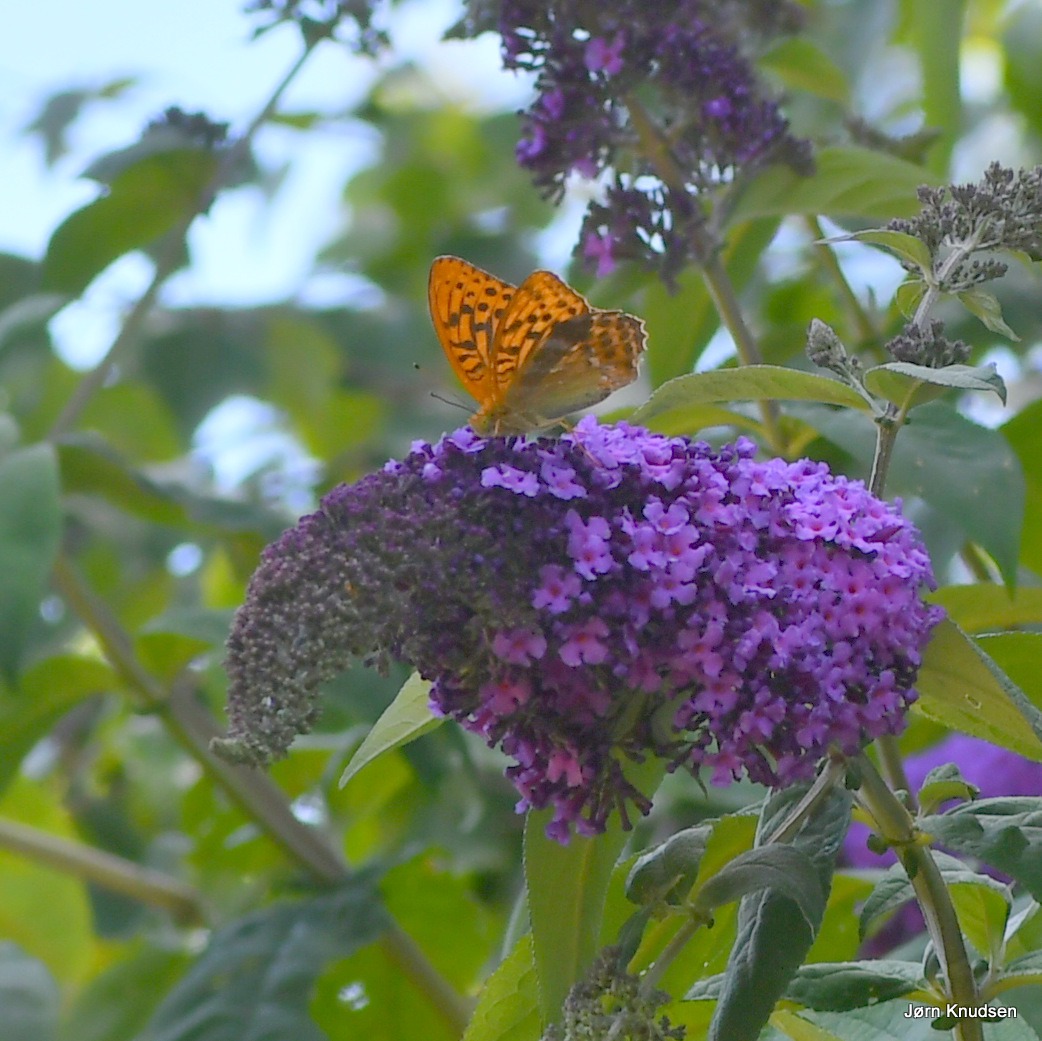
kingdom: Animalia
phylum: Arthropoda
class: Insecta
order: Lepidoptera
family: Nymphalidae
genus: Argynnis
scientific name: Argynnis paphia
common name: Kejserkåbe
